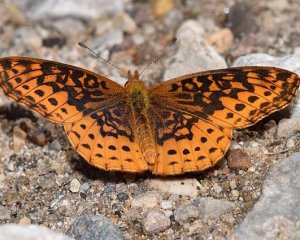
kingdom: Animalia
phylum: Arthropoda
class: Insecta
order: Lepidoptera
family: Nymphalidae
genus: Clossiana
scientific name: Clossiana toddi
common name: Meadow Fritillary
